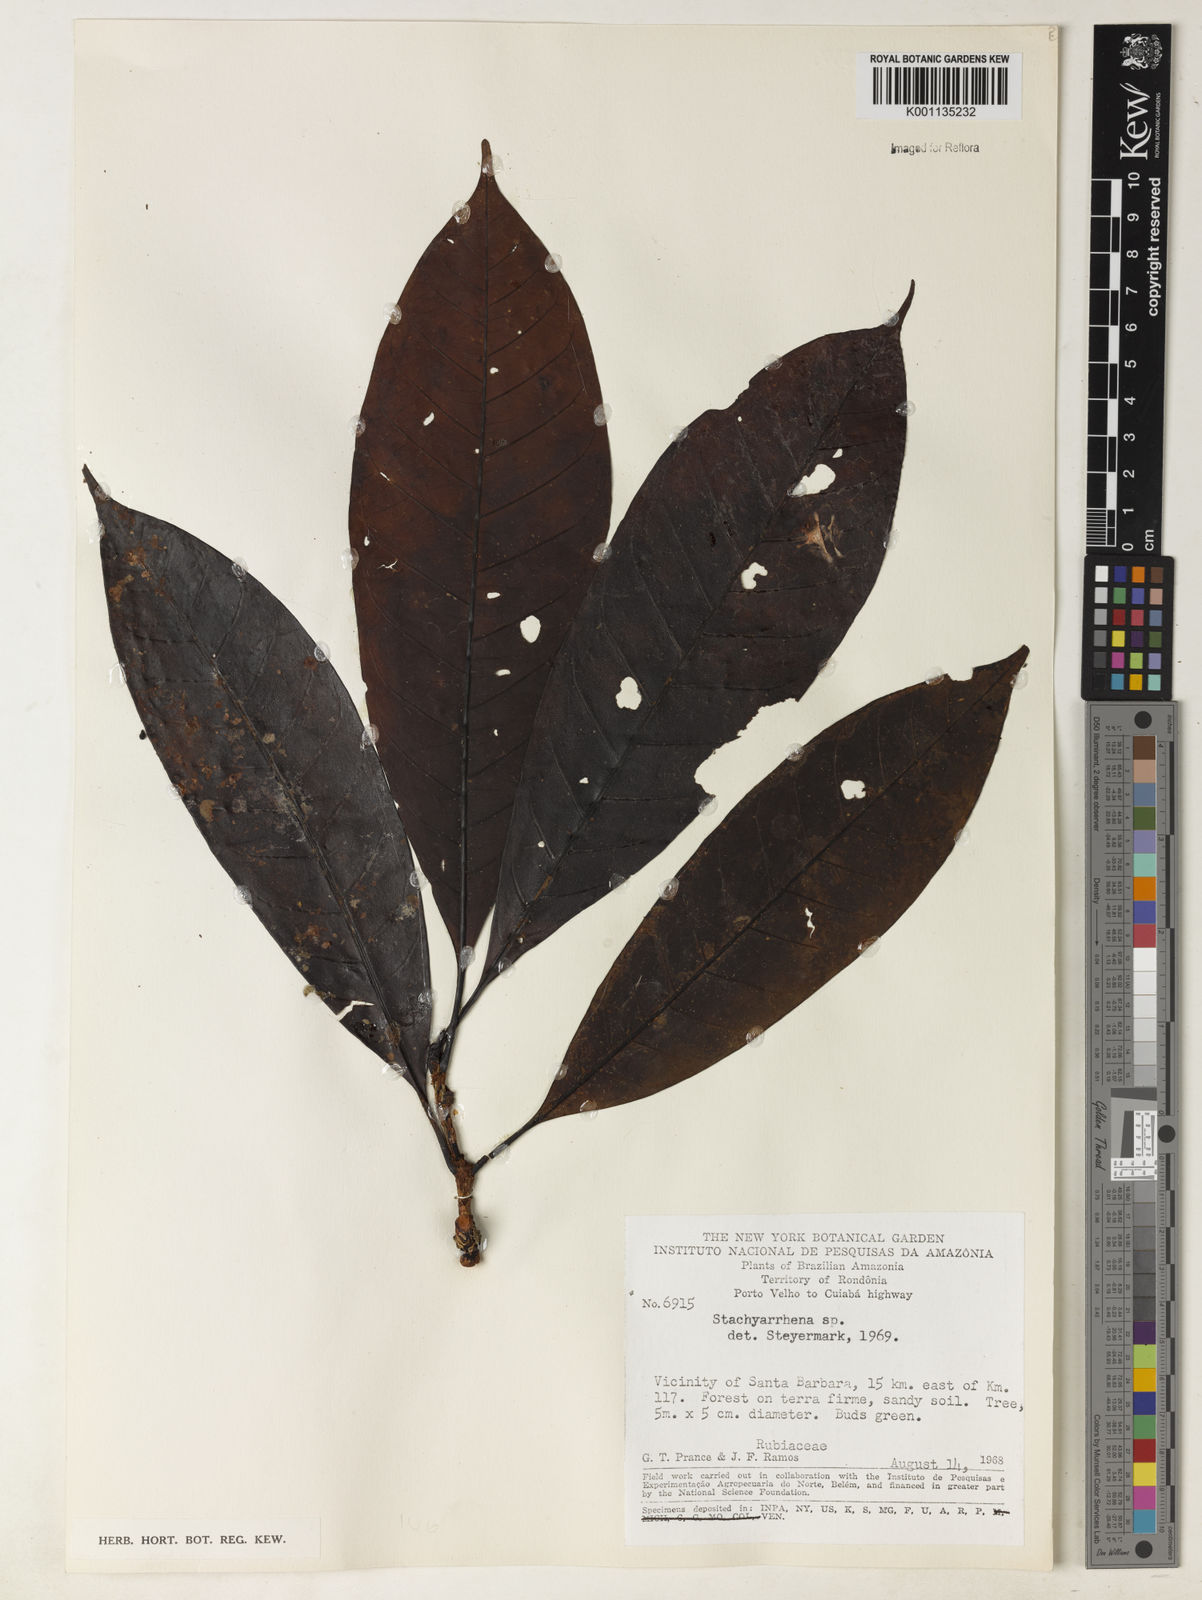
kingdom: Plantae
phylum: Tracheophyta
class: Magnoliopsida
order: Gentianales
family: Rubiaceae
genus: Stachyarrhena
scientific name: Stachyarrhena
